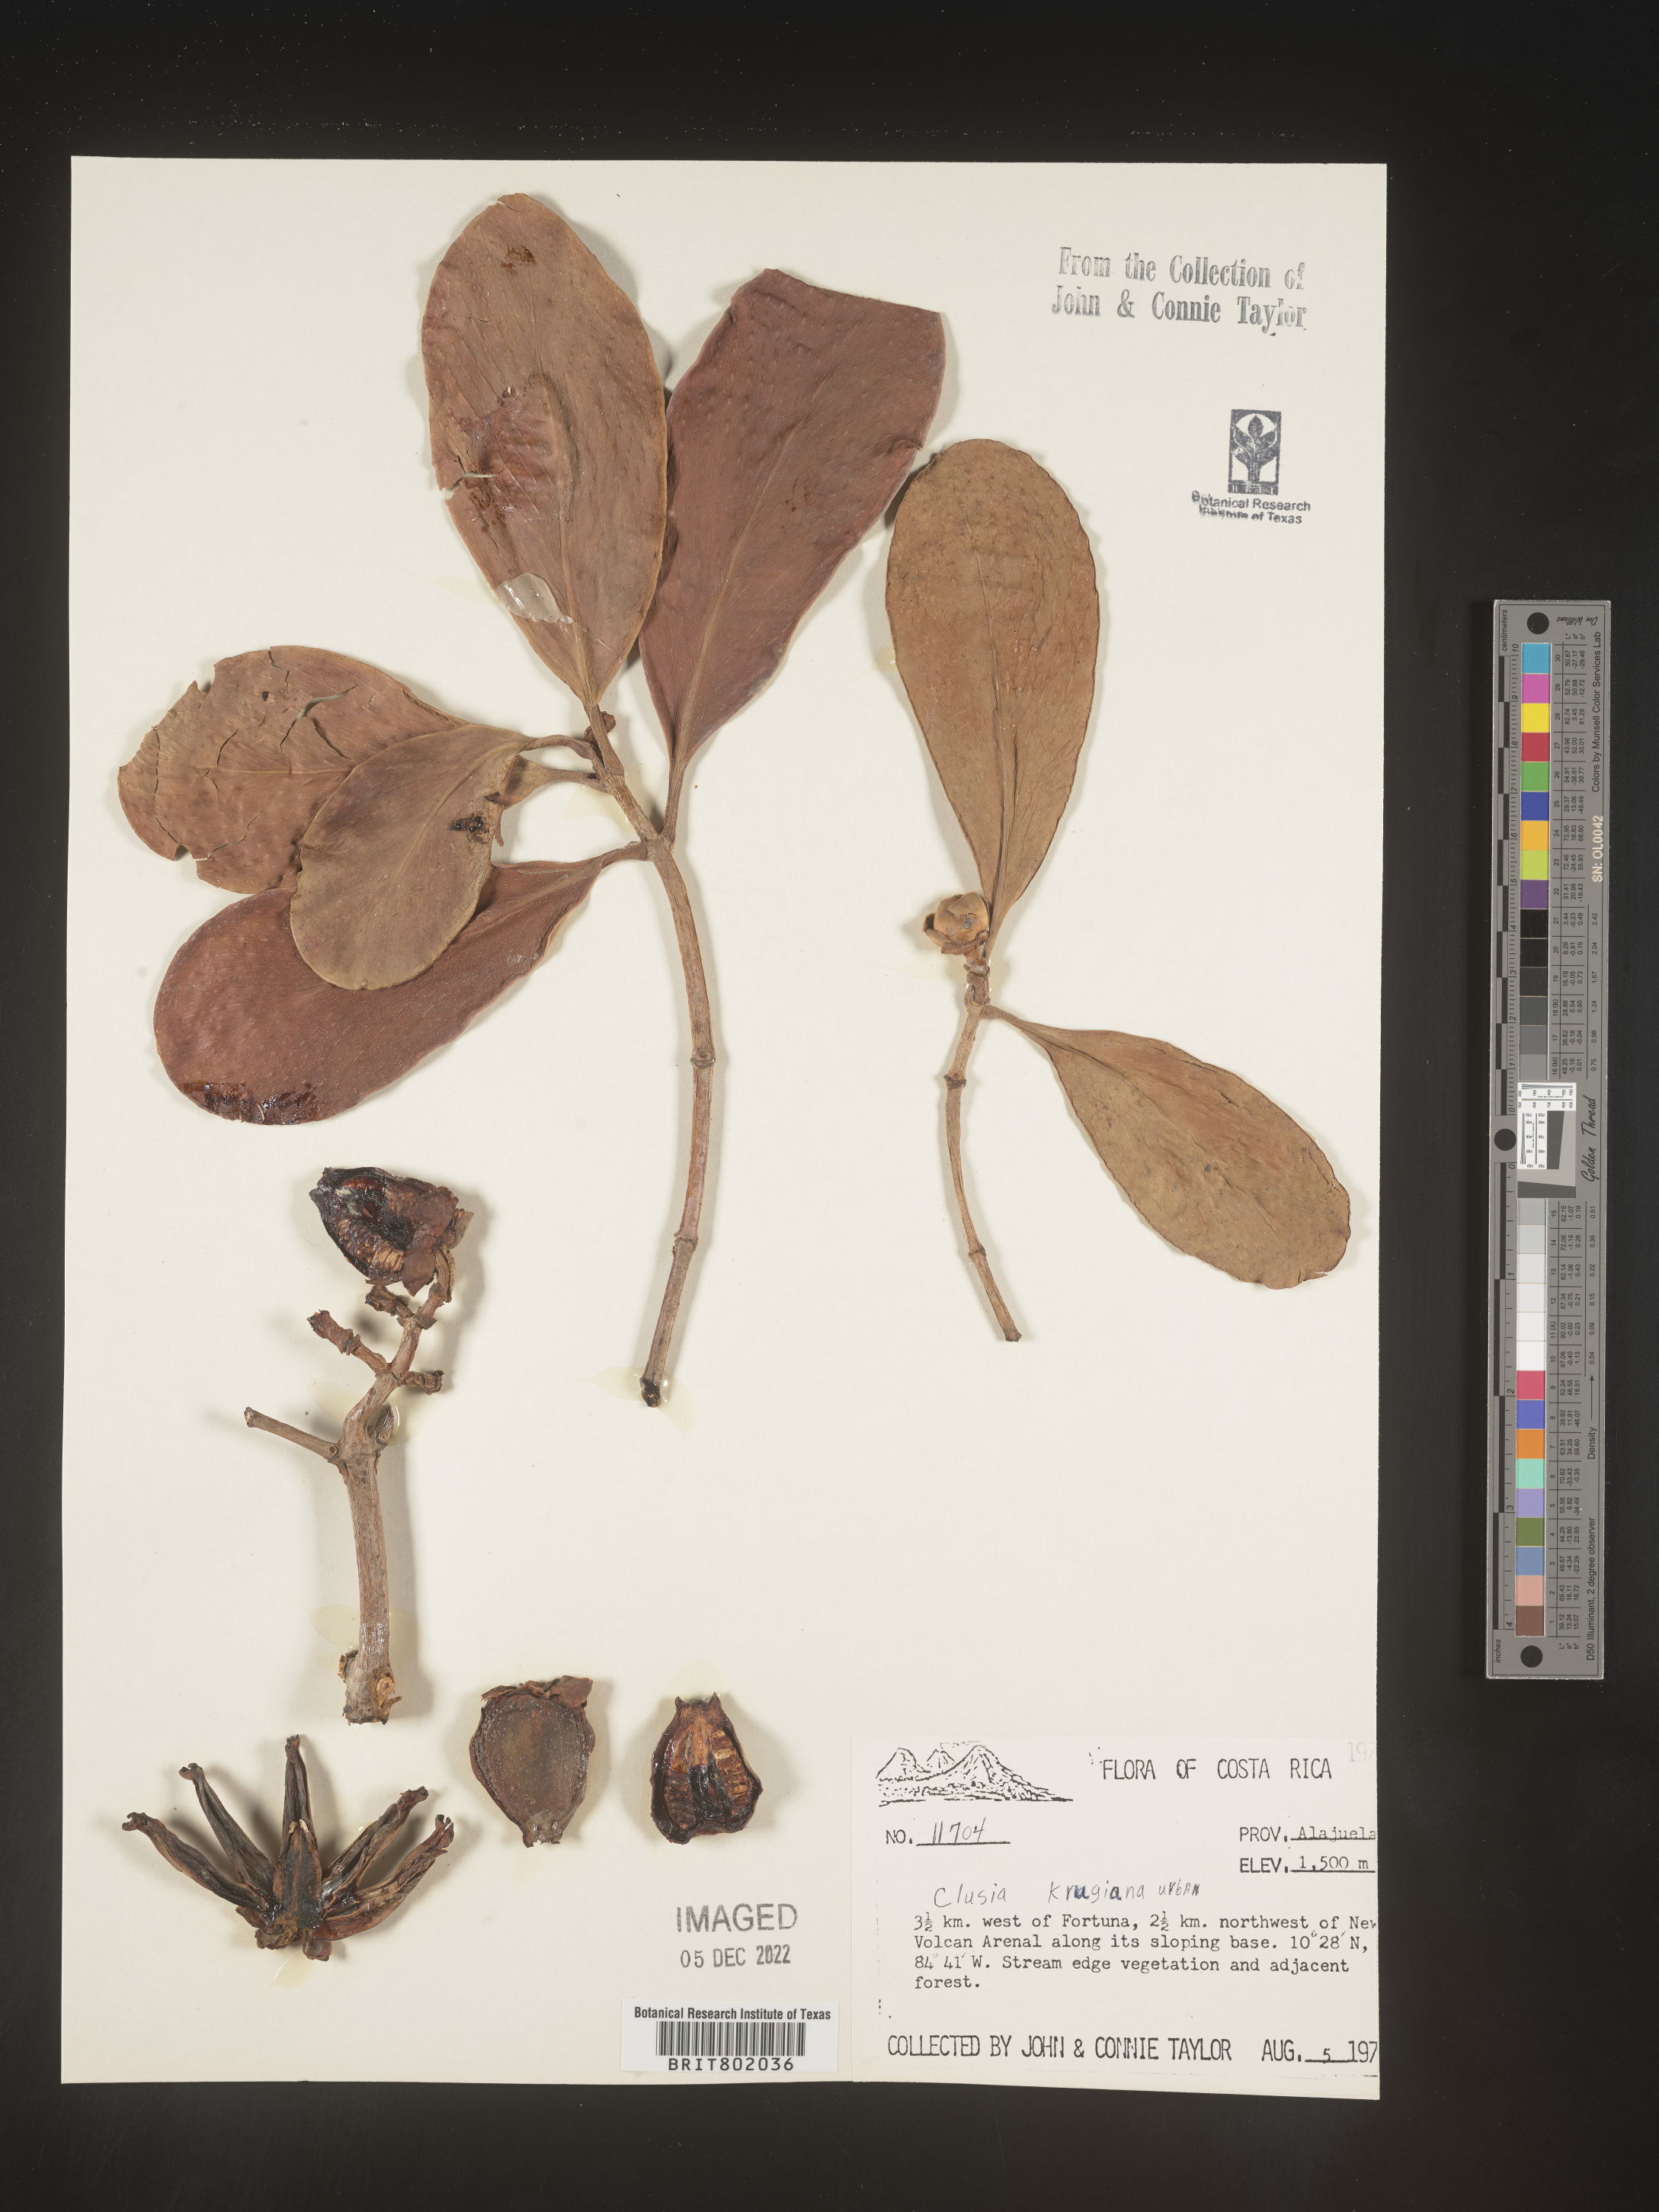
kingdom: Plantae
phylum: Tracheophyta
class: Magnoliopsida
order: Malpighiales
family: Clusiaceae
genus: Clusia
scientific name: Clusia
